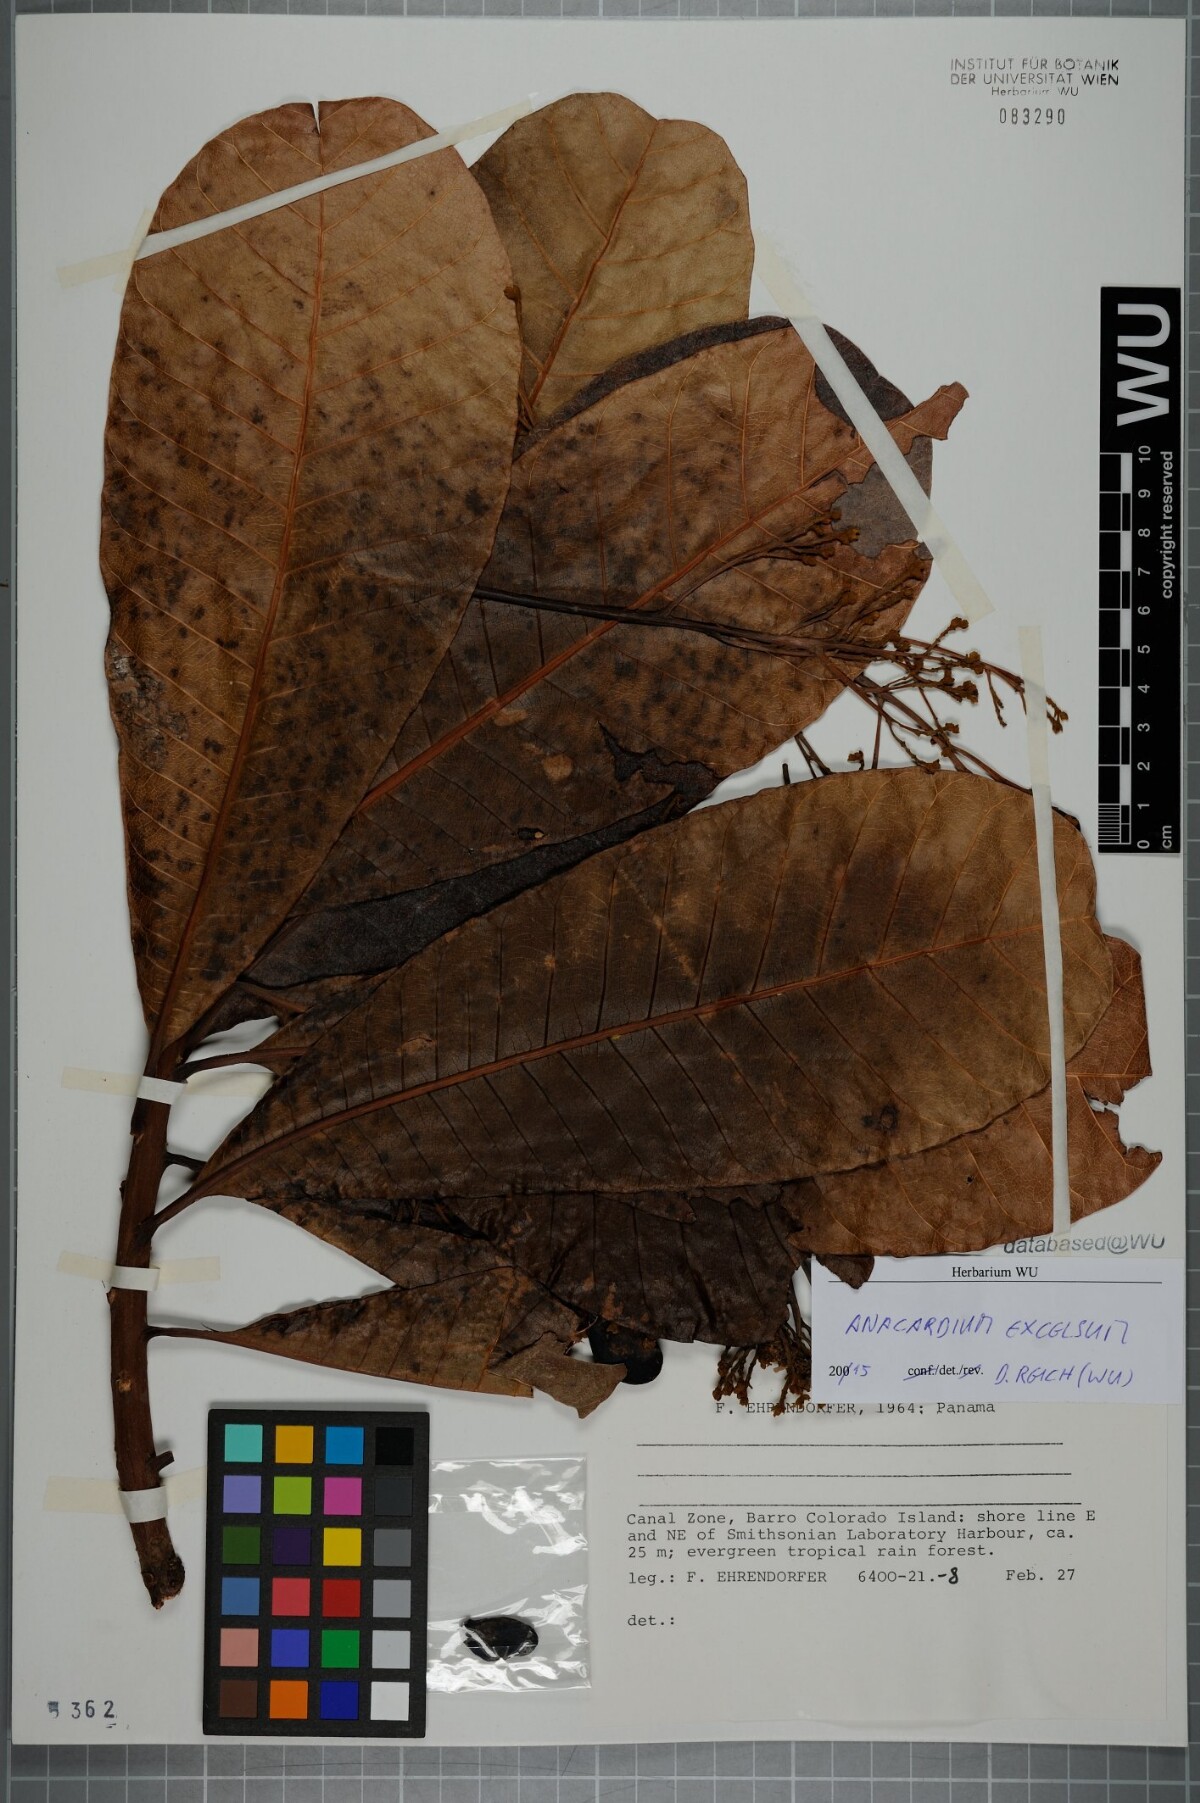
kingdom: Plantae
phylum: Tracheophyta
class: Magnoliopsida
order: Sapindales
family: Anacardiaceae
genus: Anacardium
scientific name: Anacardium excelsum
